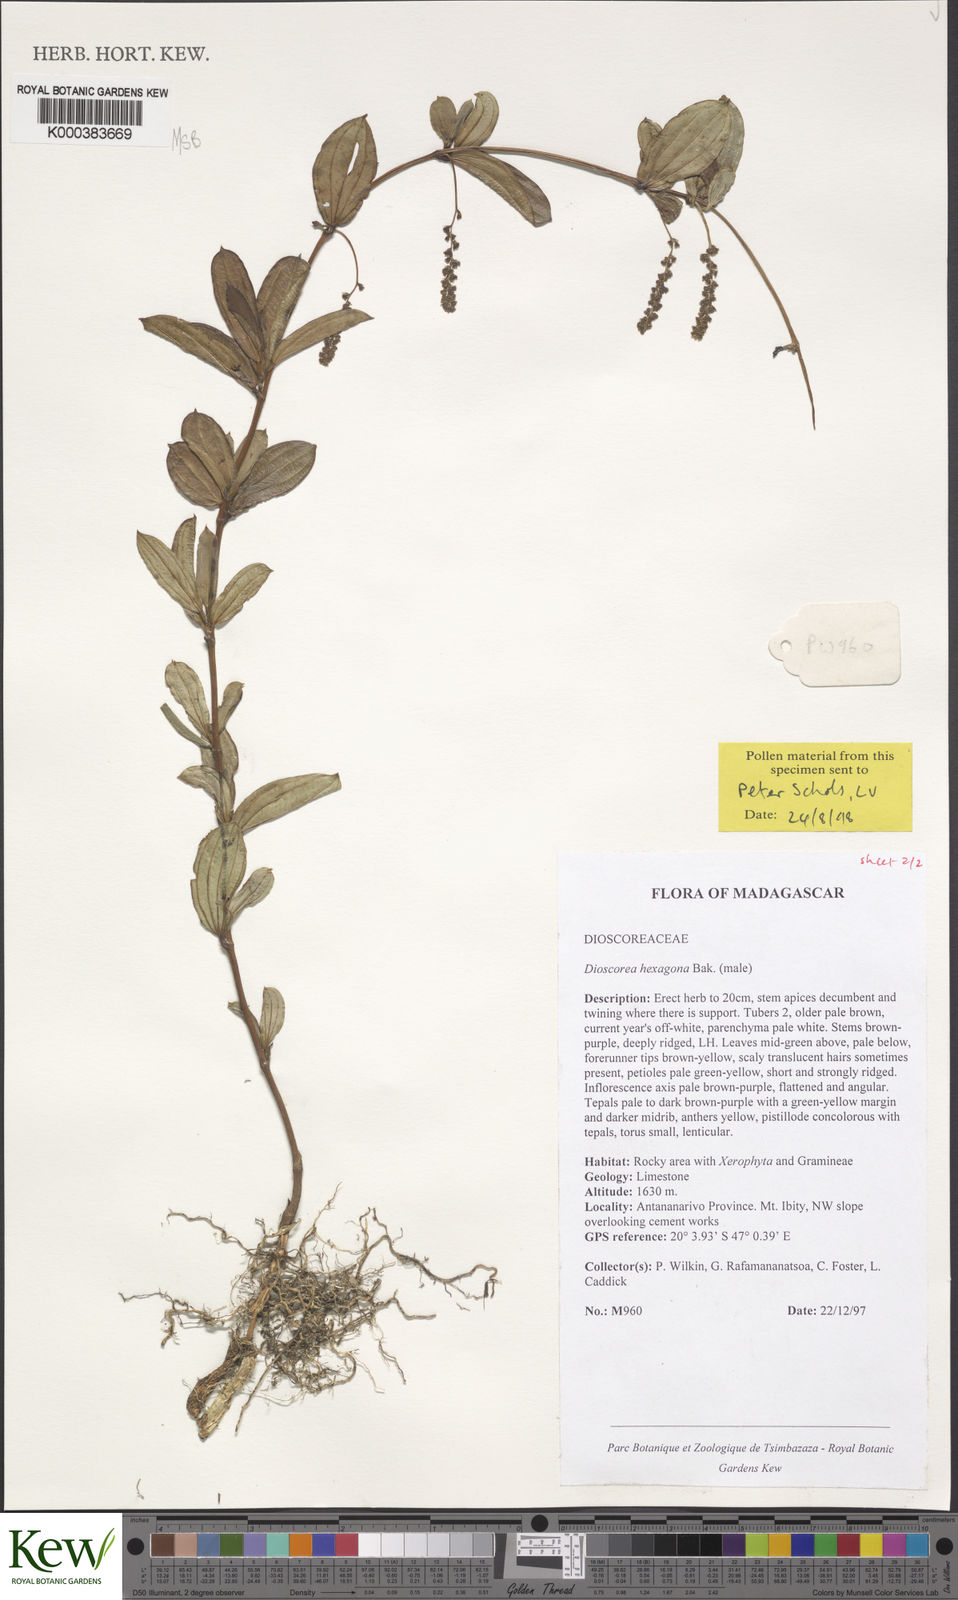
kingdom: Plantae
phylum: Tracheophyta
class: Liliopsida
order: Dioscoreales
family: Dioscoreaceae
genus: Dioscorea
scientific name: Dioscorea hexagona
